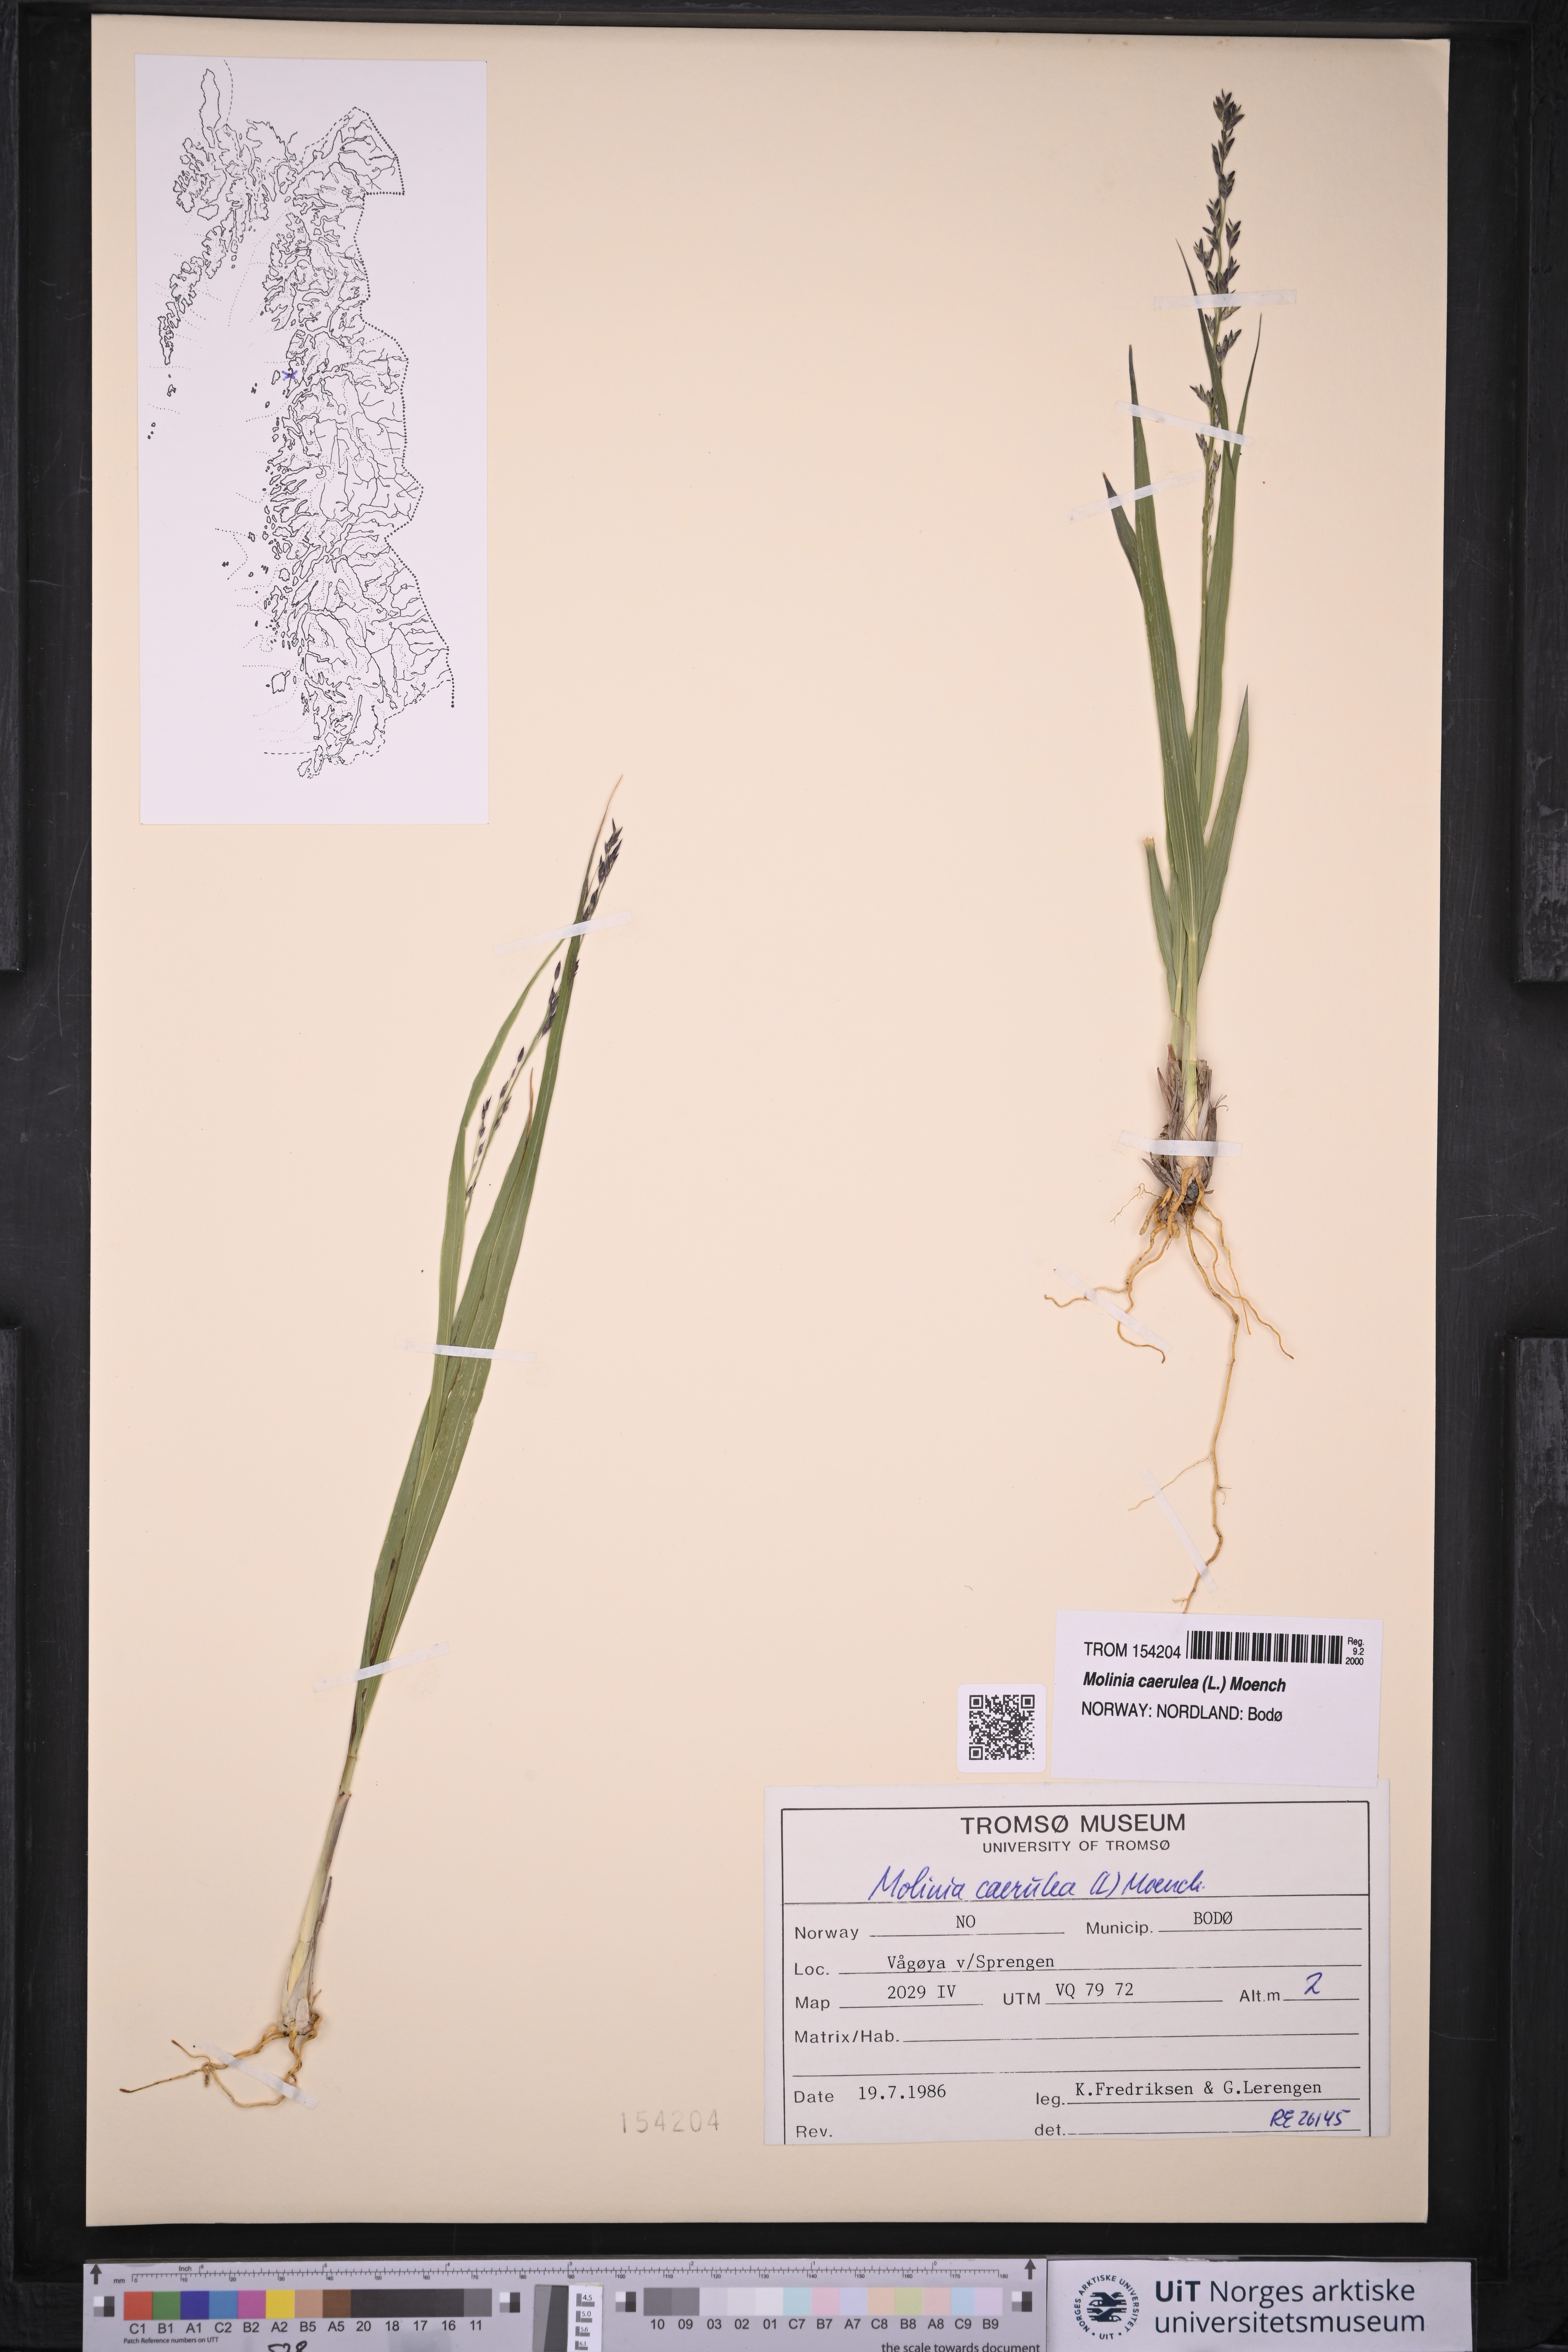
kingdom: Plantae
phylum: Tracheophyta
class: Liliopsida
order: Poales
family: Poaceae
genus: Molinia
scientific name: Molinia caerulea
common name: Purple moor-grass
